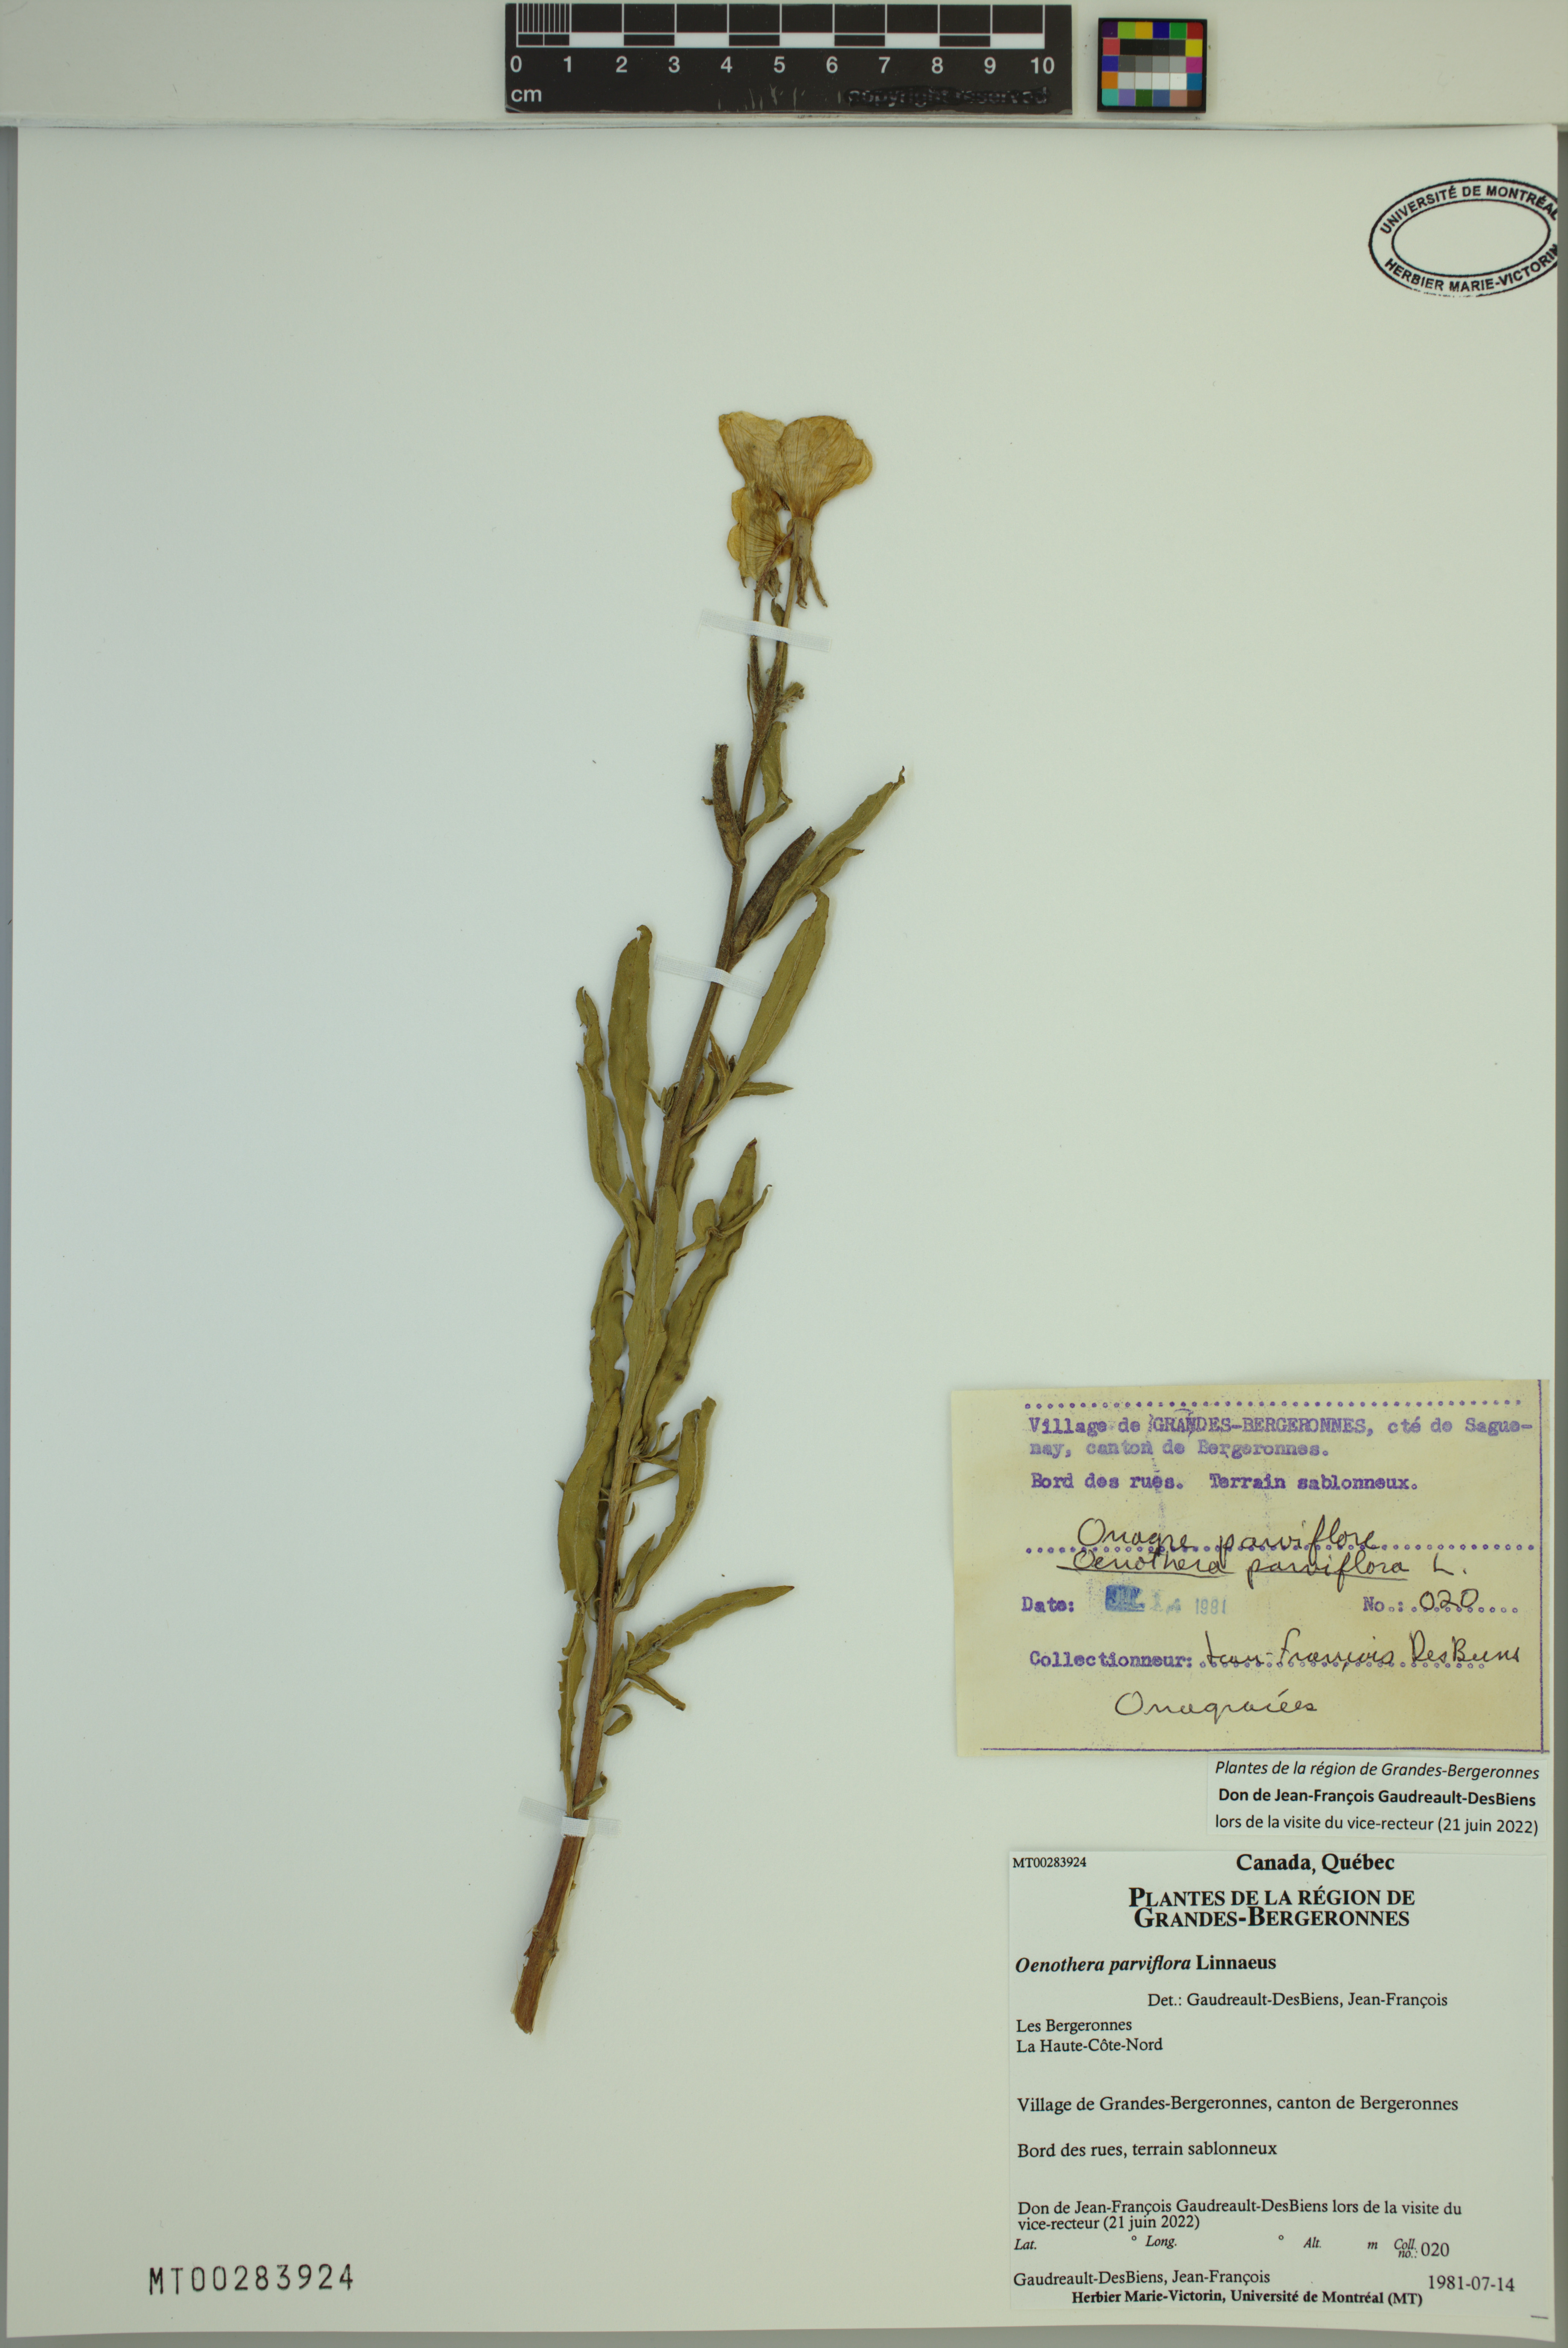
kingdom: Plantae
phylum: Tracheophyta
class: Magnoliopsida
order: Myrtales
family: Onagraceae
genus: Oenothera
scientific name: Oenothera parviflora
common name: Least evening-primrose
